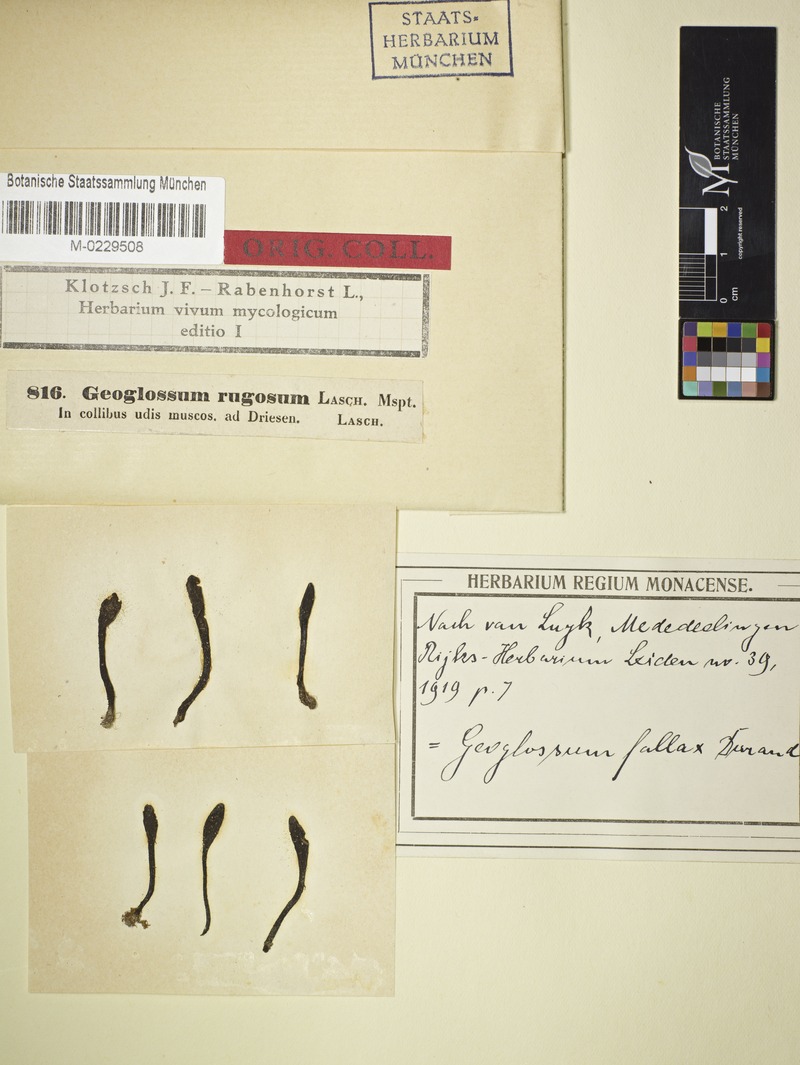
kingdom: Fungi
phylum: Ascomycota
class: Geoglossomycetes
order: Geoglossales
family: Geoglossaceae
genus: Geoglossum
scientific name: Geoglossum fallax
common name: Deceptive earthtongue
